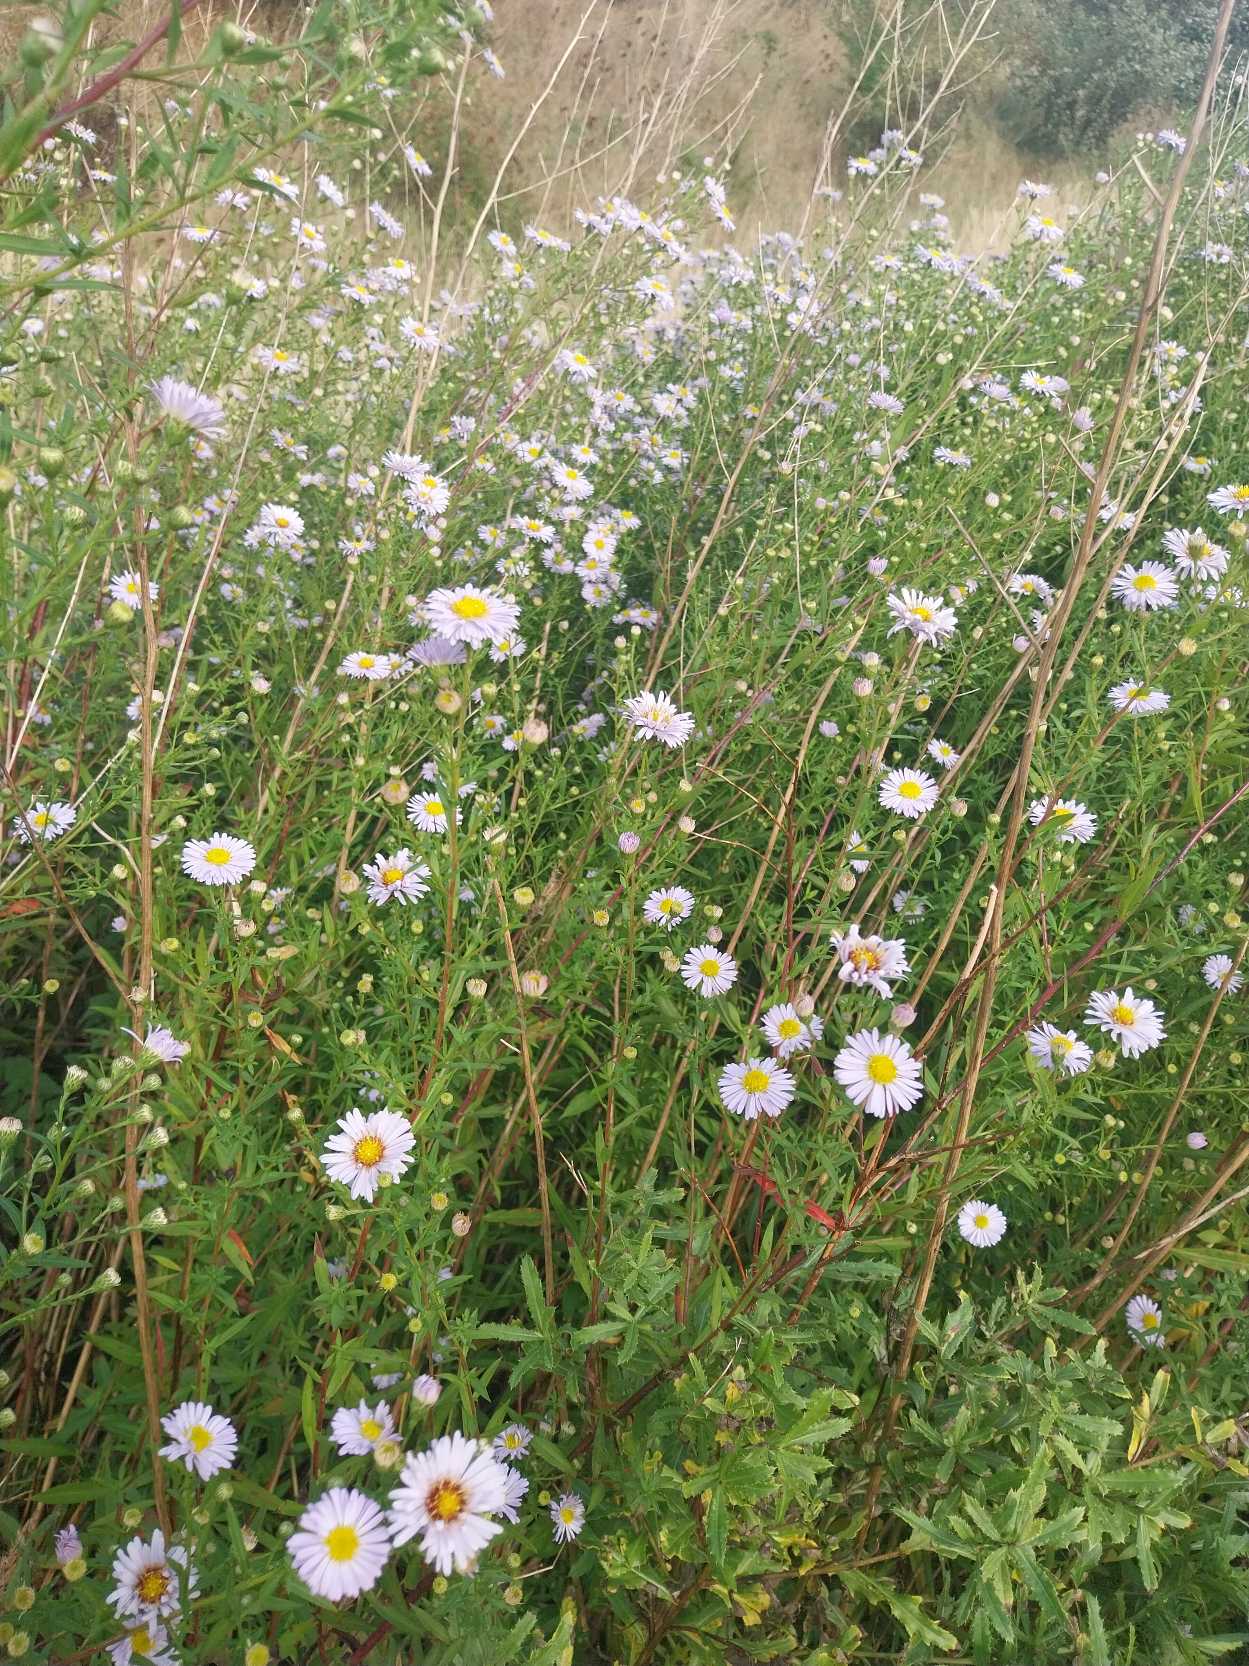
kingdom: Plantae
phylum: Tracheophyta
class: Magnoliopsida
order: Asterales
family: Asteraceae
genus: Symphyotrichum
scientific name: Symphyotrichum lanceolatum
